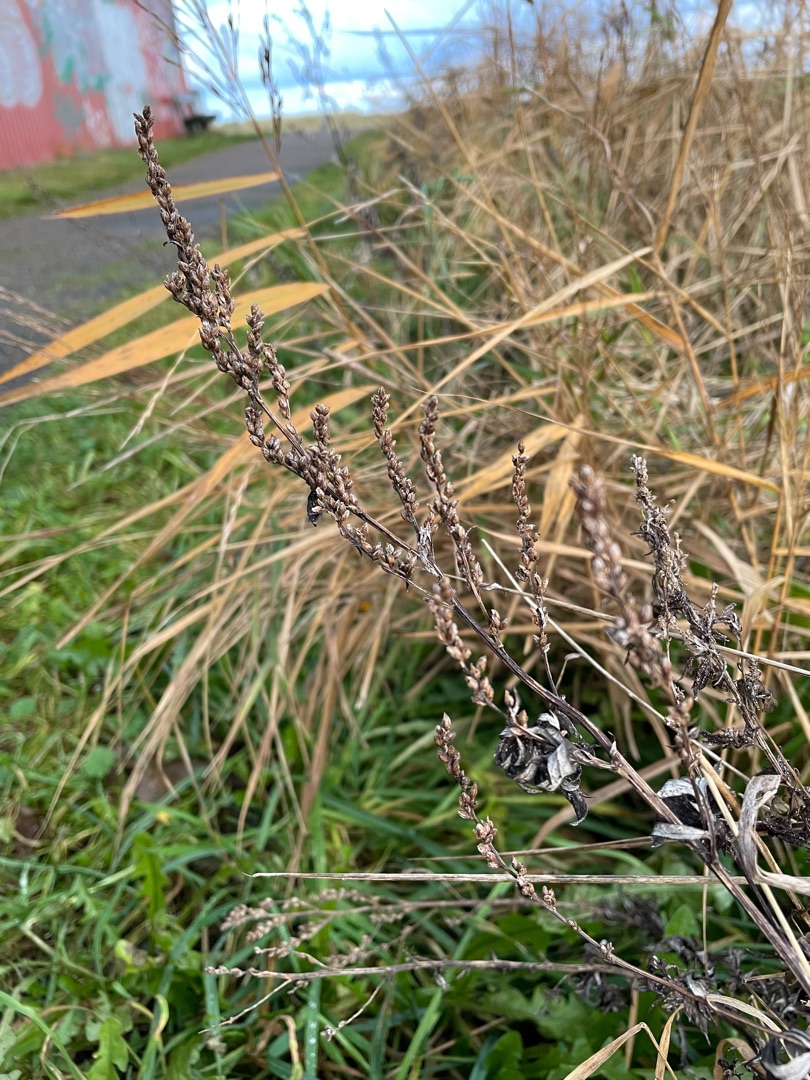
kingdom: Plantae
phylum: Tracheophyta
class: Magnoliopsida
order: Asterales
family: Asteraceae
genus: Artemisia
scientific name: Artemisia vulgaris
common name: Grå-bynke
